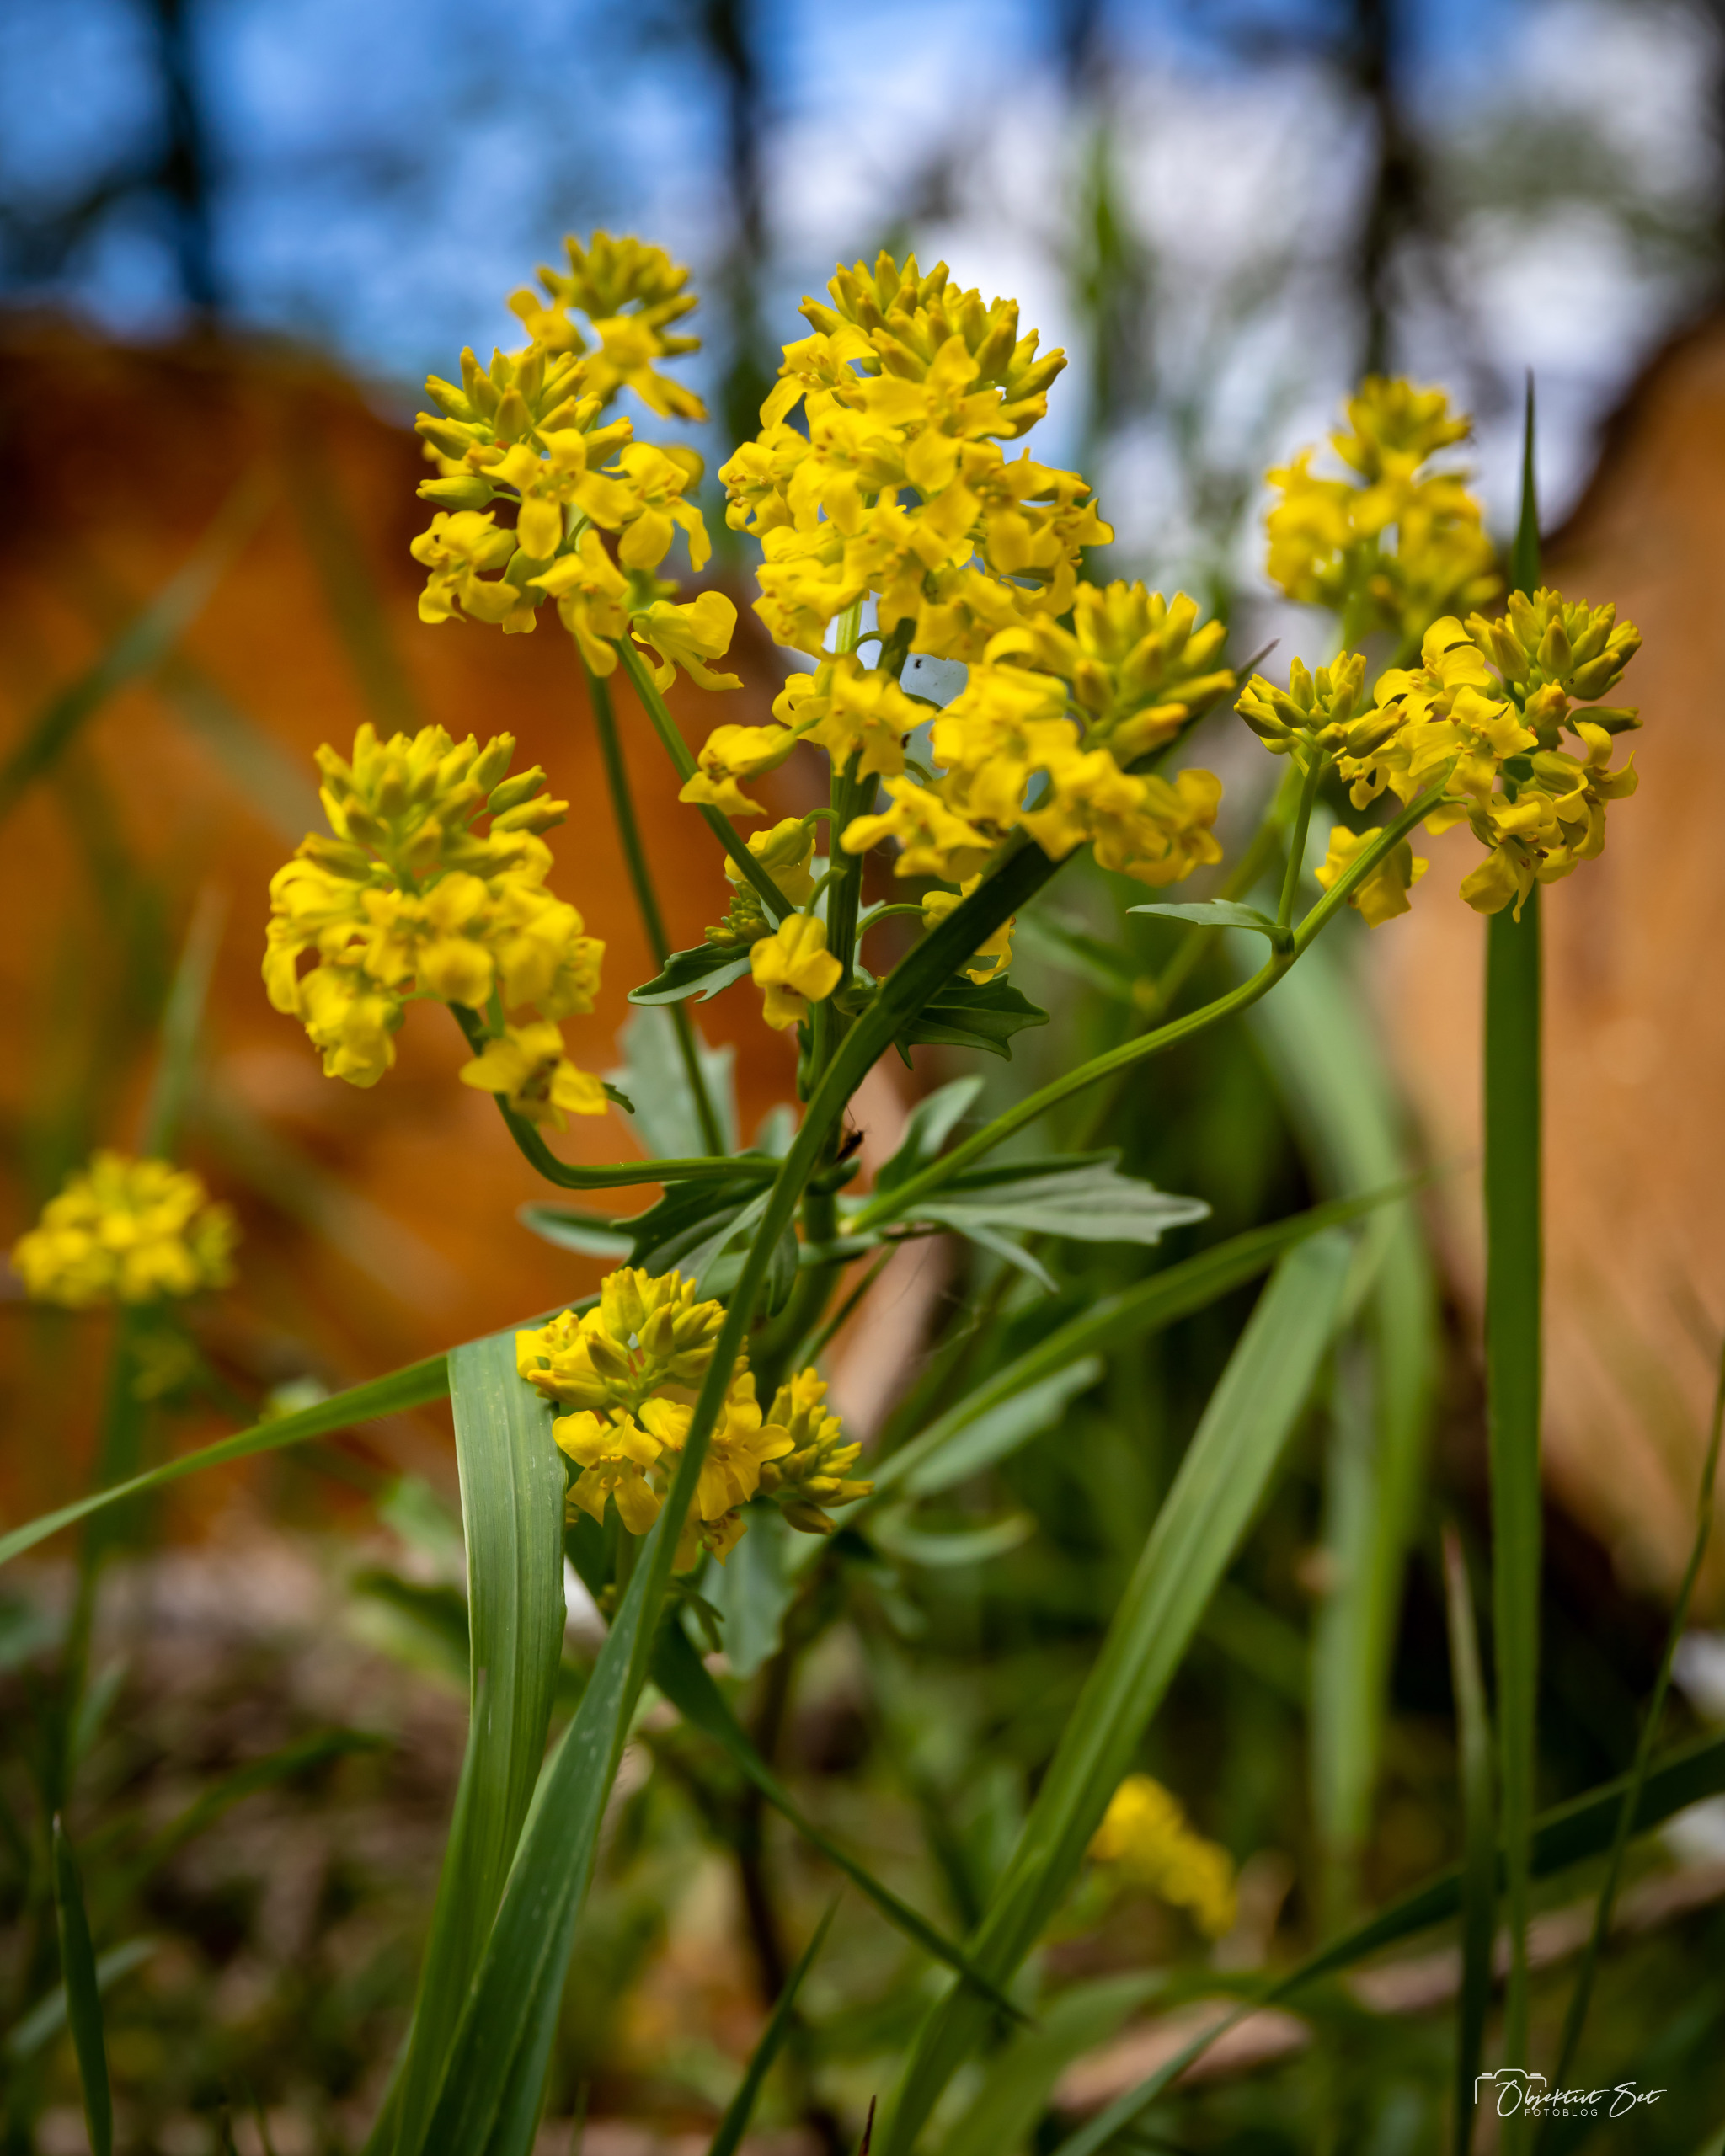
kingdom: Plantae
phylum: Tracheophyta
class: Magnoliopsida
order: Brassicales
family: Brassicaceae
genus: Barbarea
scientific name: Barbarea vulgaris
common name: Almindelig vinterkarse
